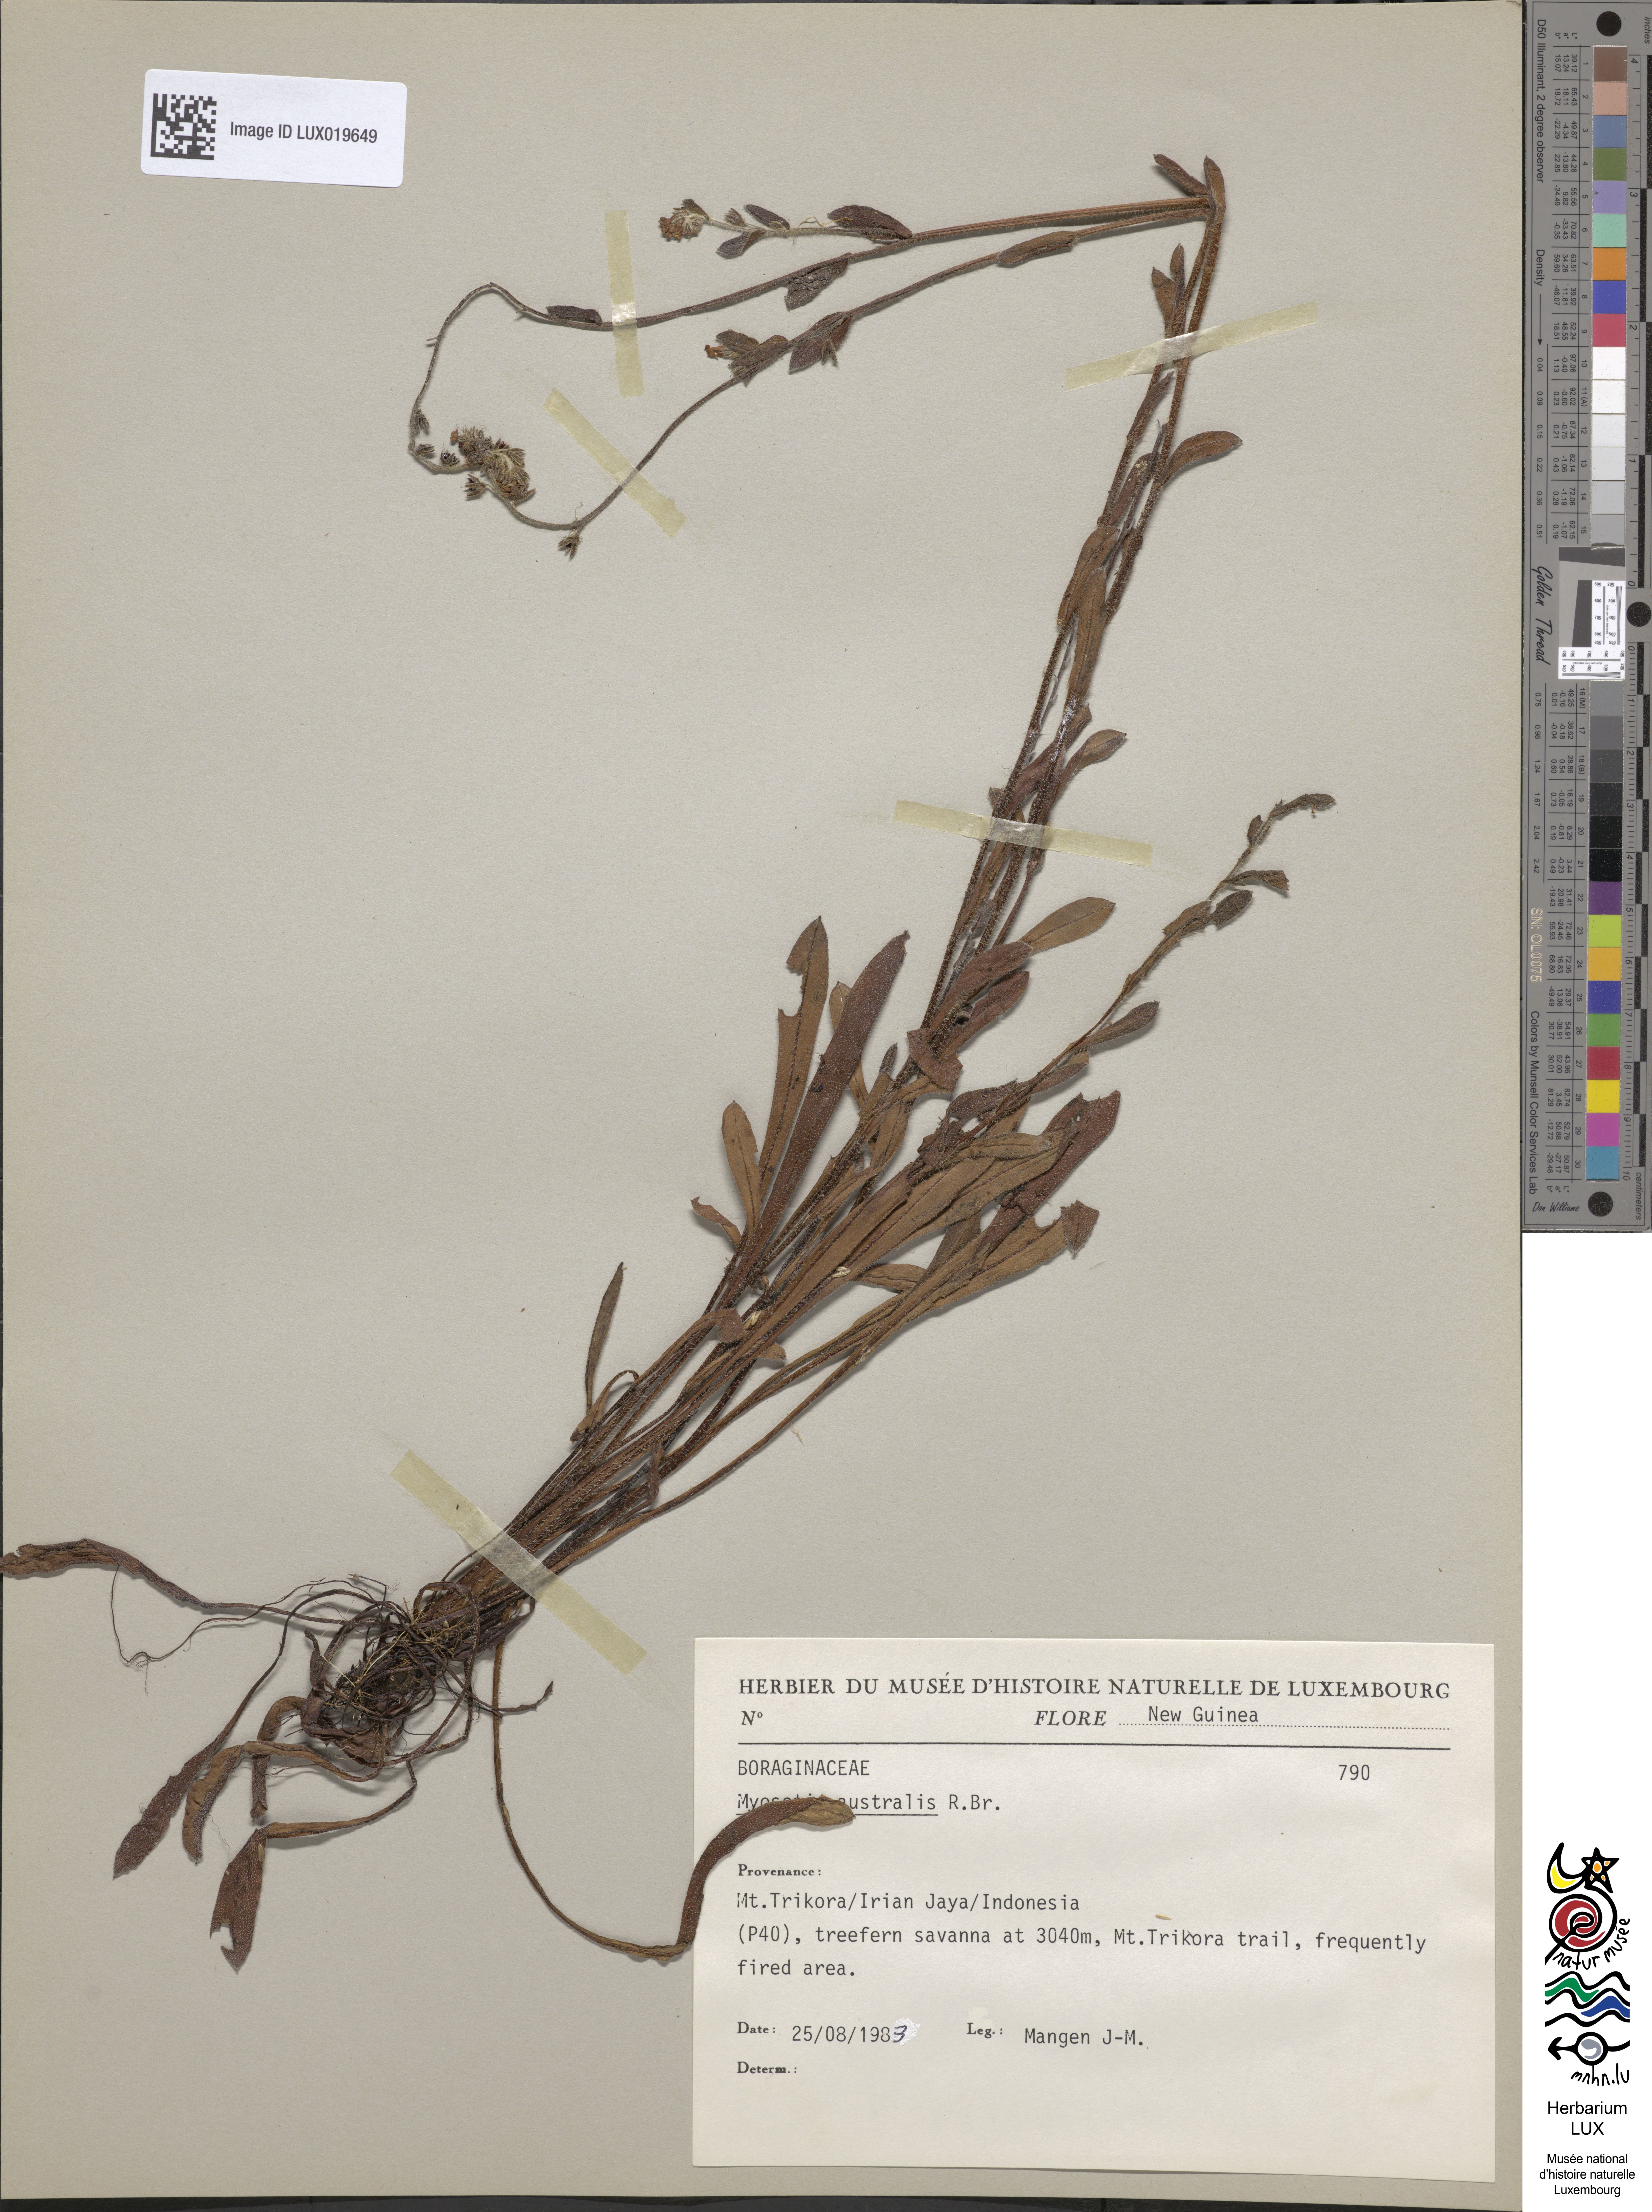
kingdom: Plantae
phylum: Tracheophyta
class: Magnoliopsida
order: Boraginales
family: Boraginaceae
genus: Myosotis
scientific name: Myosotis australis
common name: Australian forget-me-not
